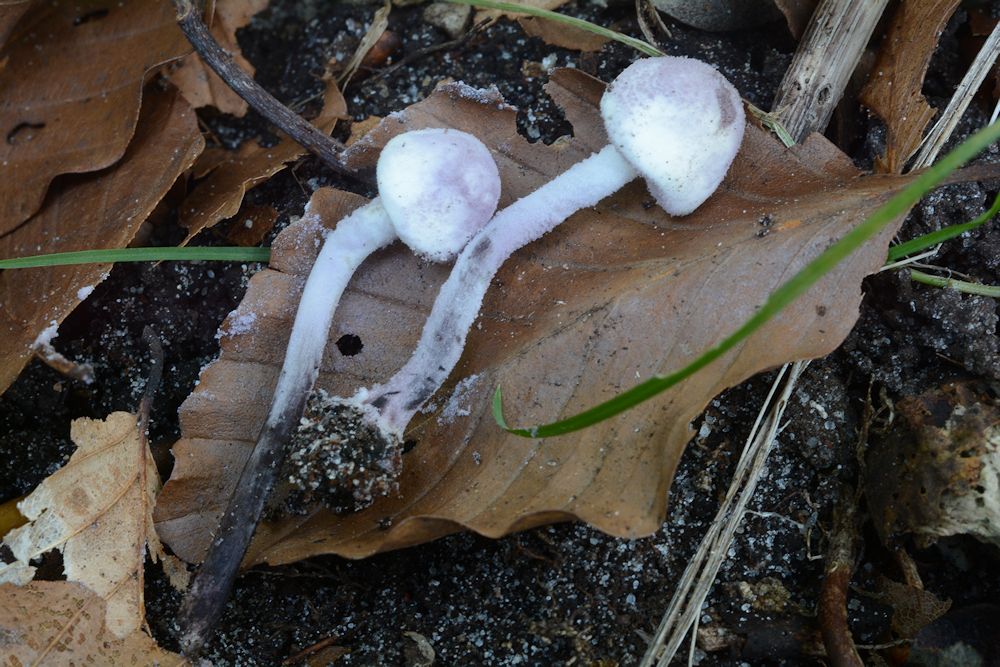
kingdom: Fungi
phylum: Basidiomycota
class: Agaricomycetes
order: Agaricales
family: Agaricaceae
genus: Cystolepiota
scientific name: Cystolepiota bucknallii
